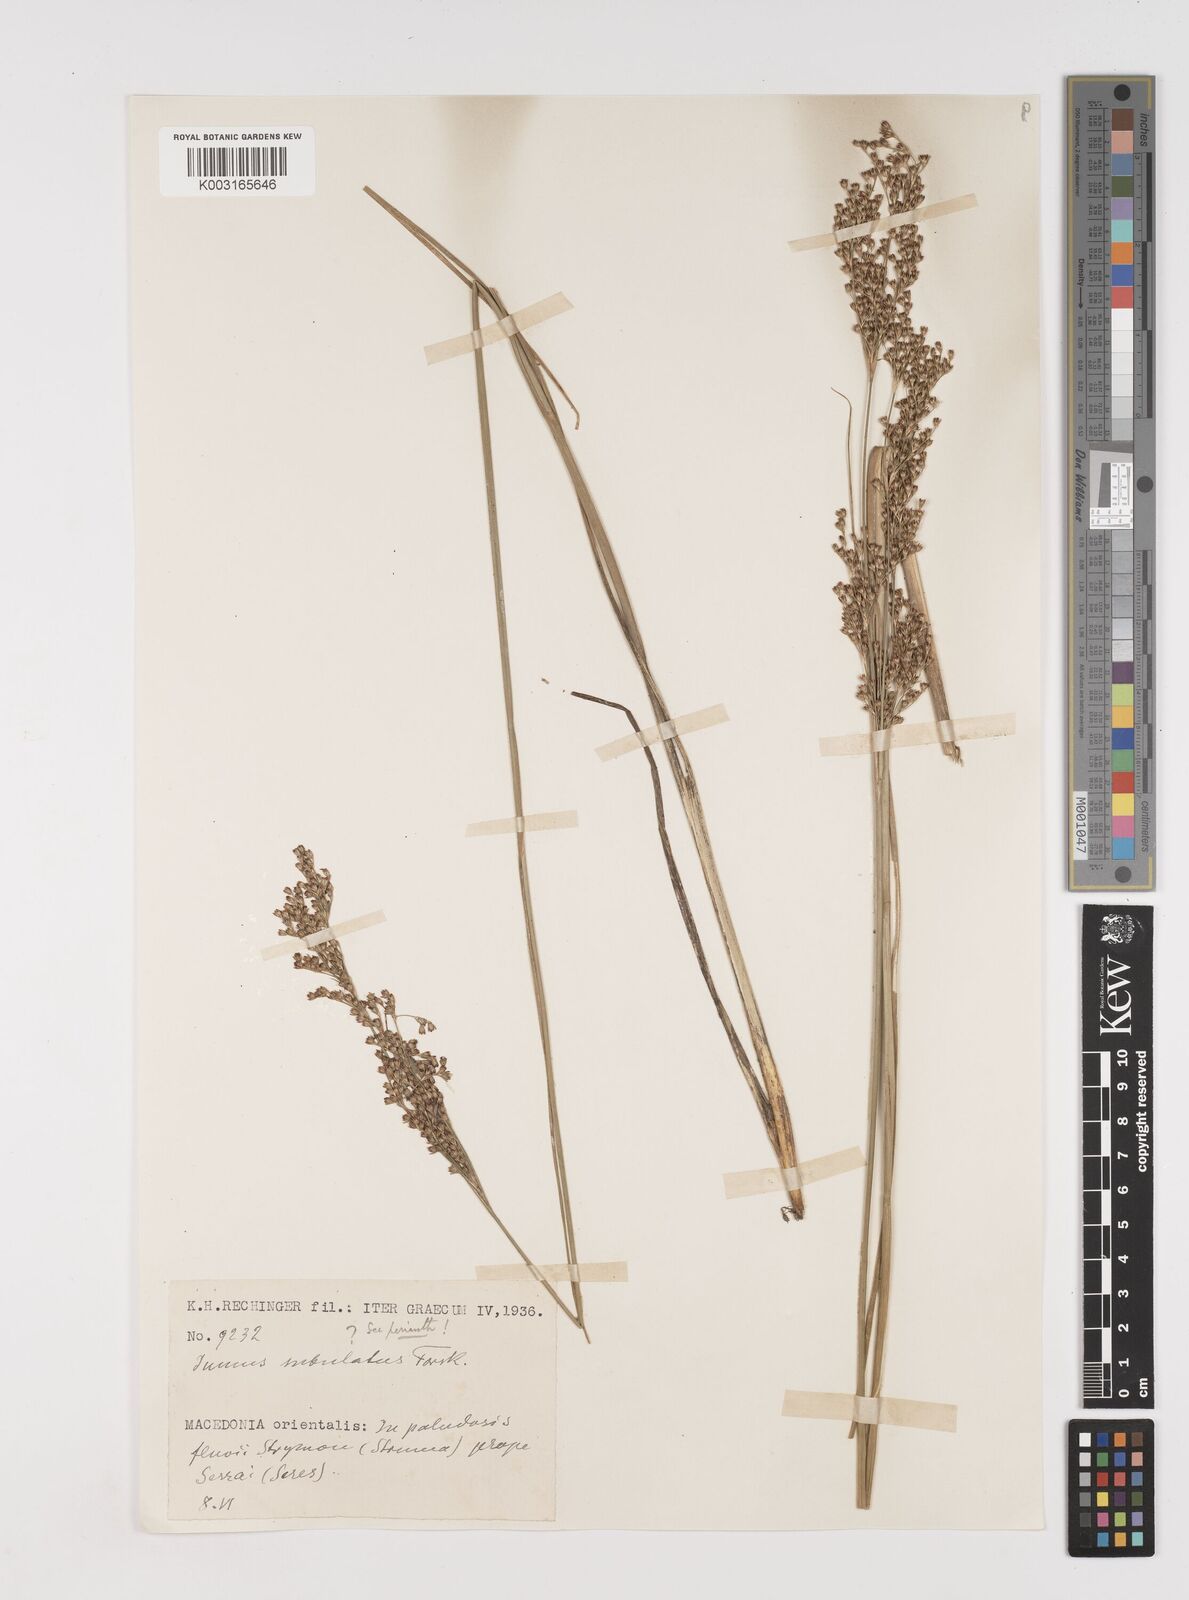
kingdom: Plantae
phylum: Tracheophyta
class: Liliopsida
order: Poales
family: Juncaceae
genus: Juncus
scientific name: Juncus subulatus
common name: Somerset rush
